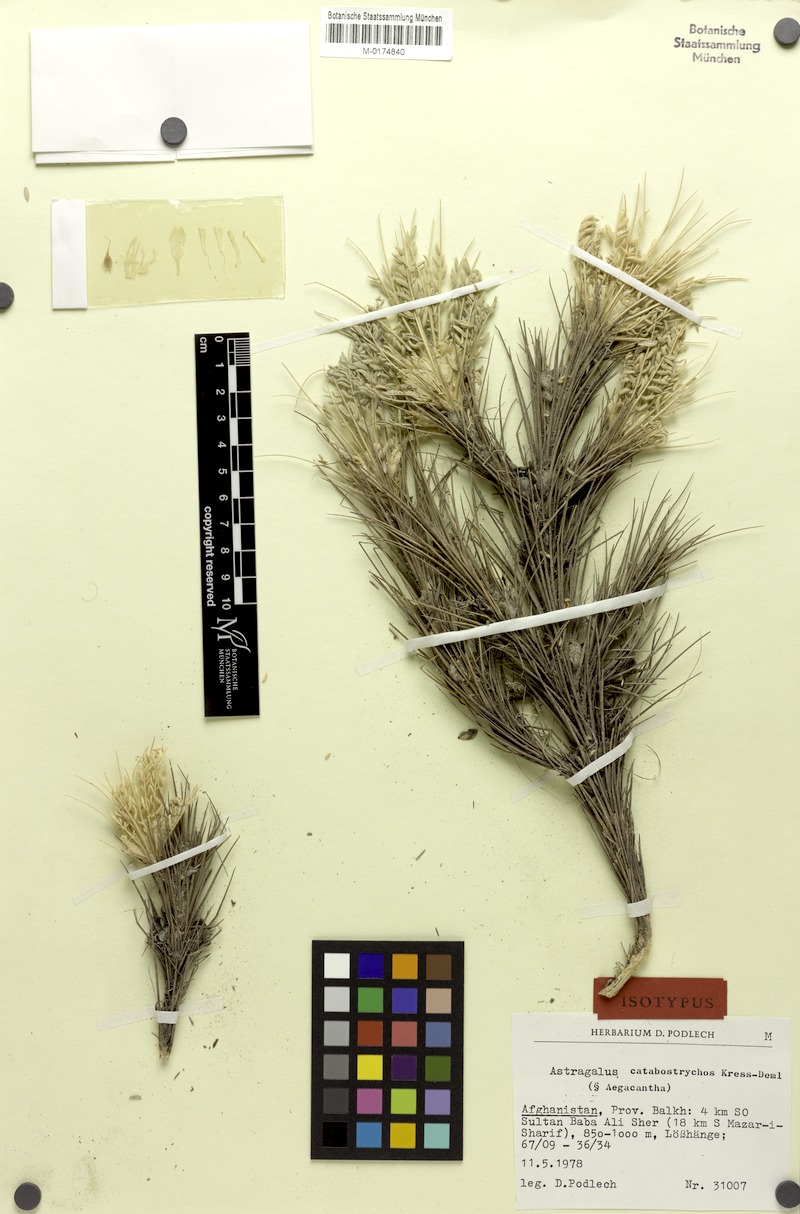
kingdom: Plantae
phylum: Tracheophyta
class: Magnoliopsida
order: Fabales
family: Fabaceae
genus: Astragalus
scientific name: Astragalus catabostrychos
